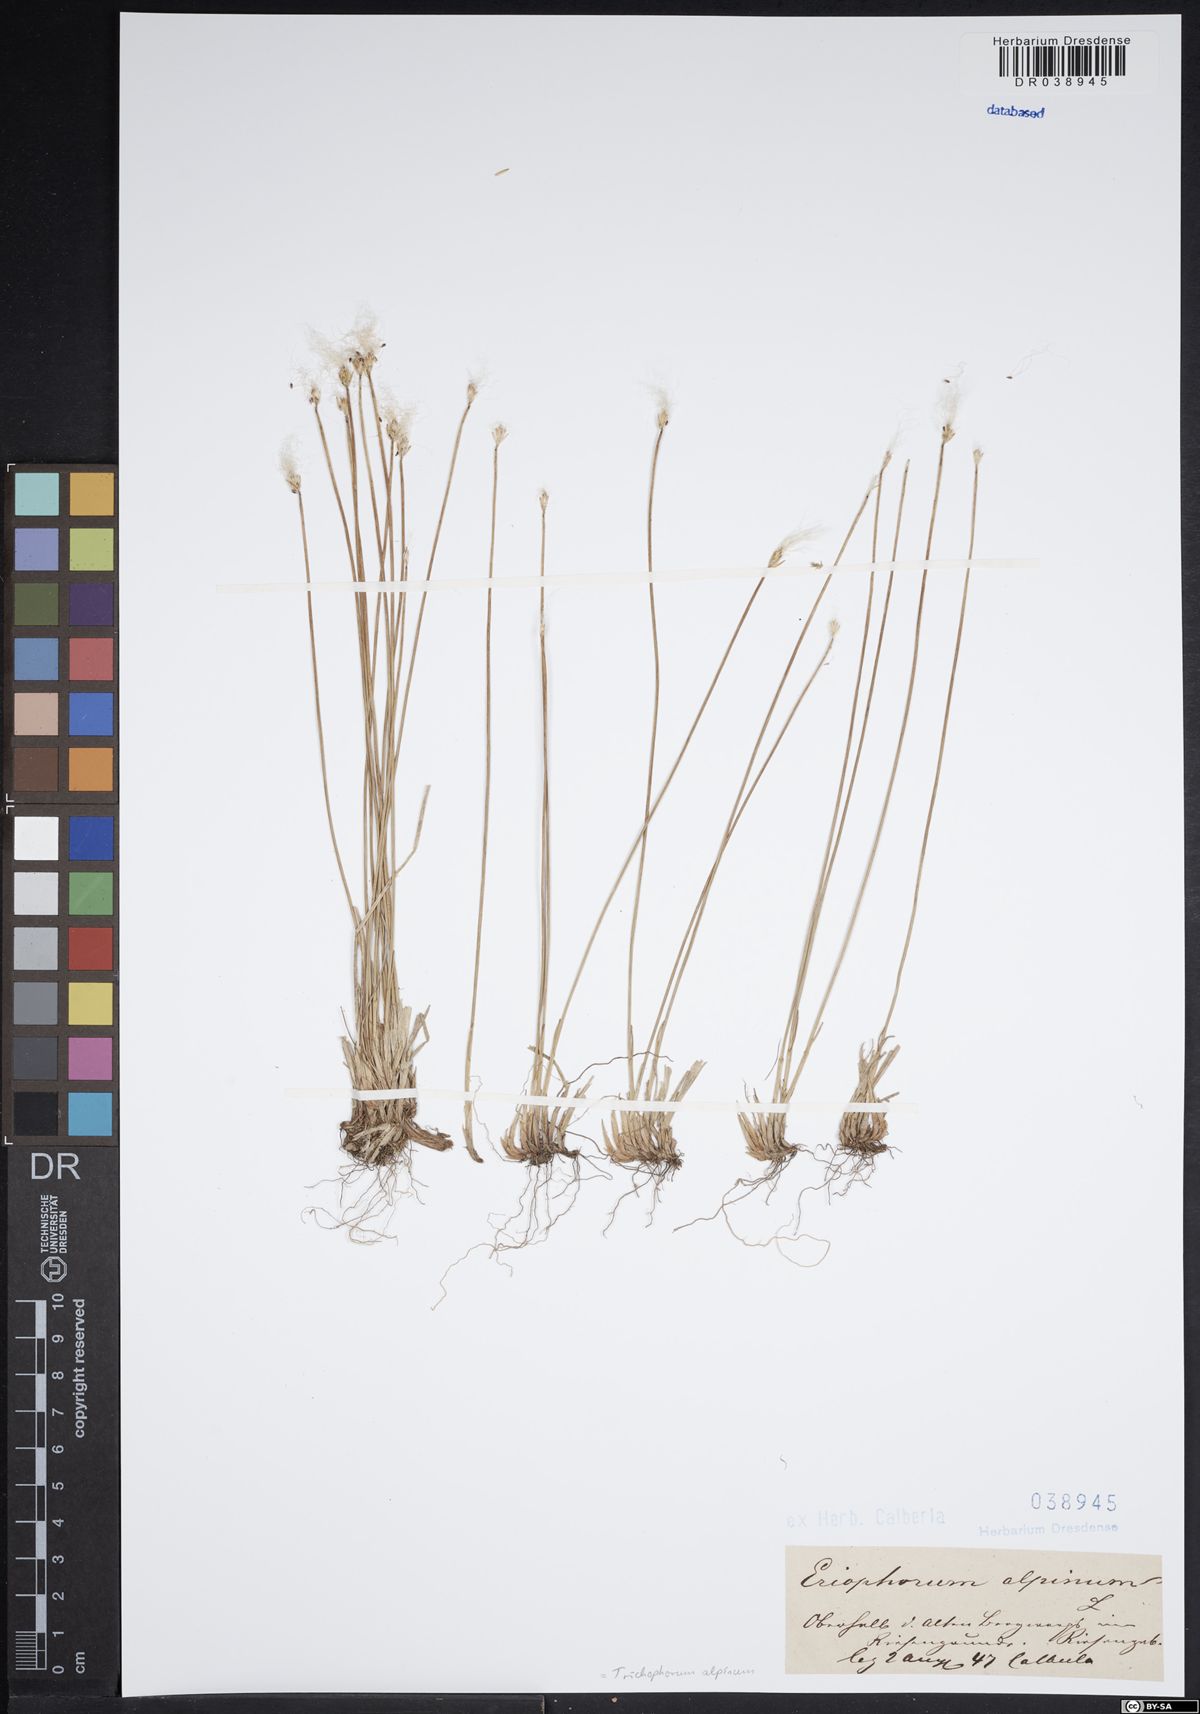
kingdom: Plantae
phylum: Tracheophyta
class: Liliopsida
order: Poales
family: Cyperaceae
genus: Trichophorum
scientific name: Trichophorum alpinum
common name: Alpine bulrush
